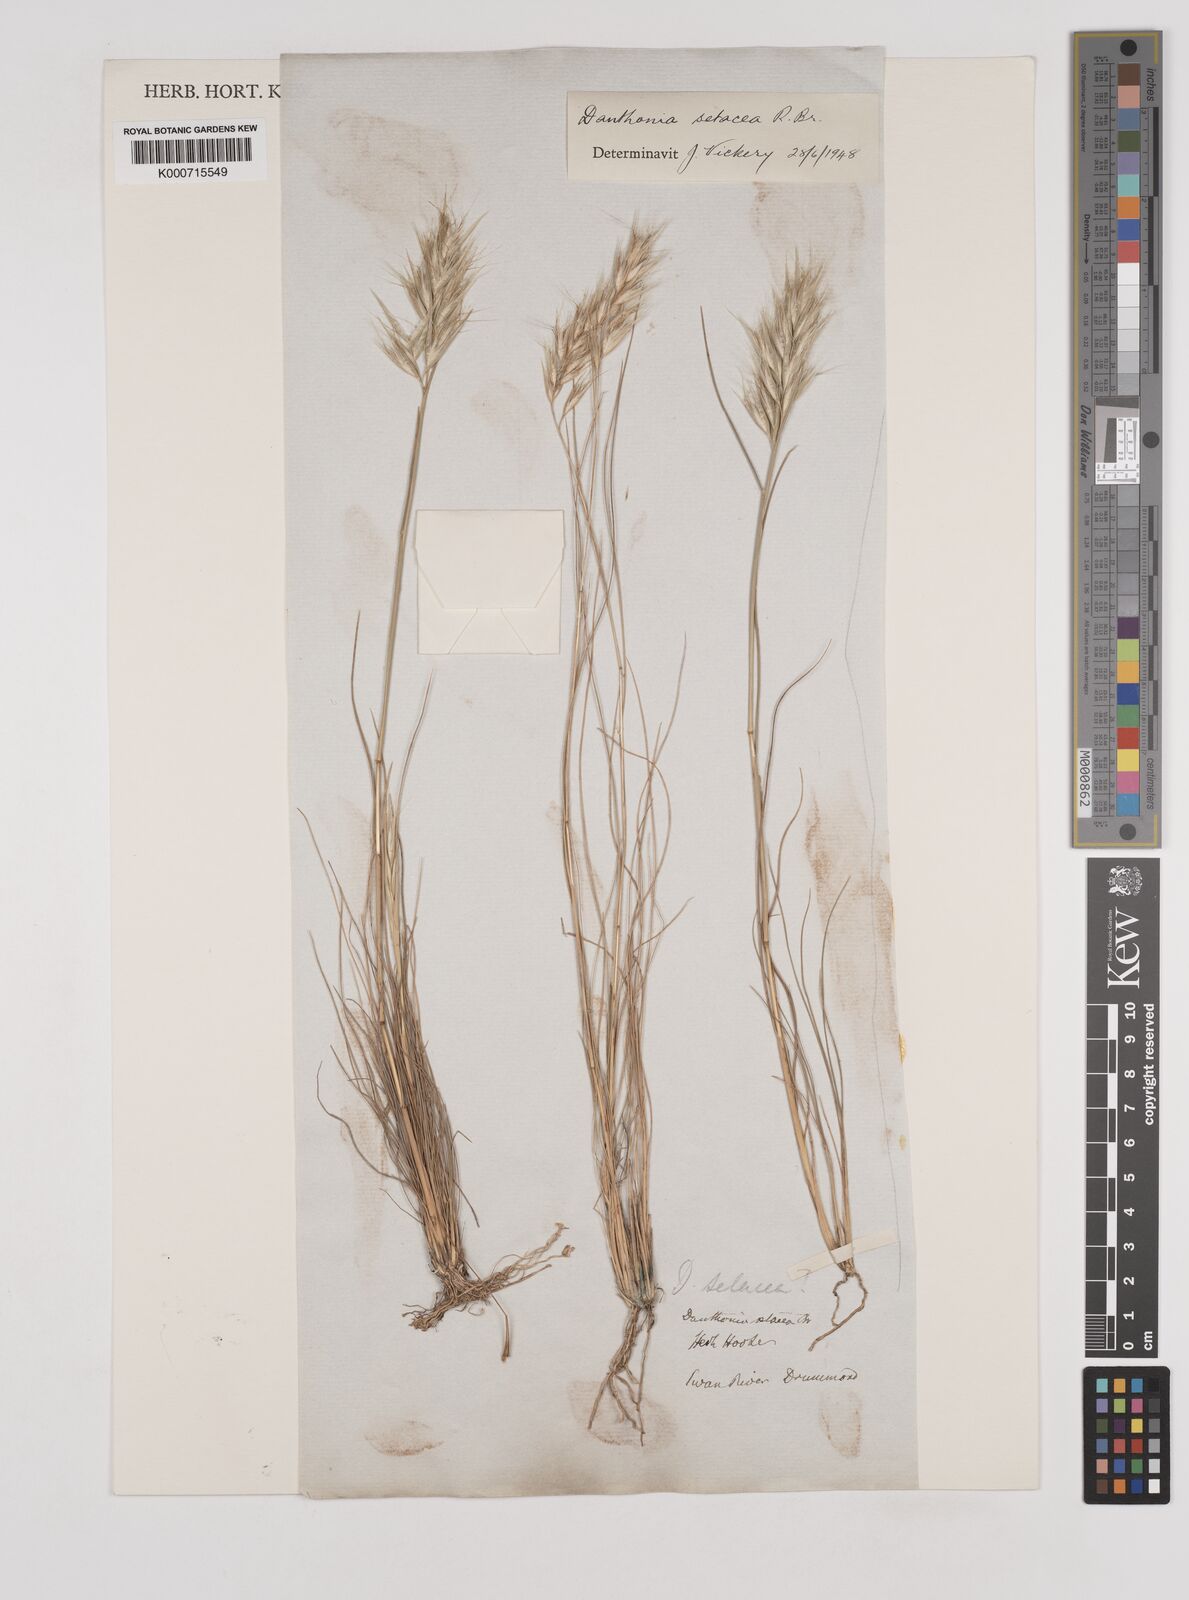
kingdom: Plantae
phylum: Tracheophyta
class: Liliopsida
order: Poales
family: Poaceae
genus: Rytidosperma
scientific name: Rytidosperma setaceum
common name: Small-flower wallaby grass
